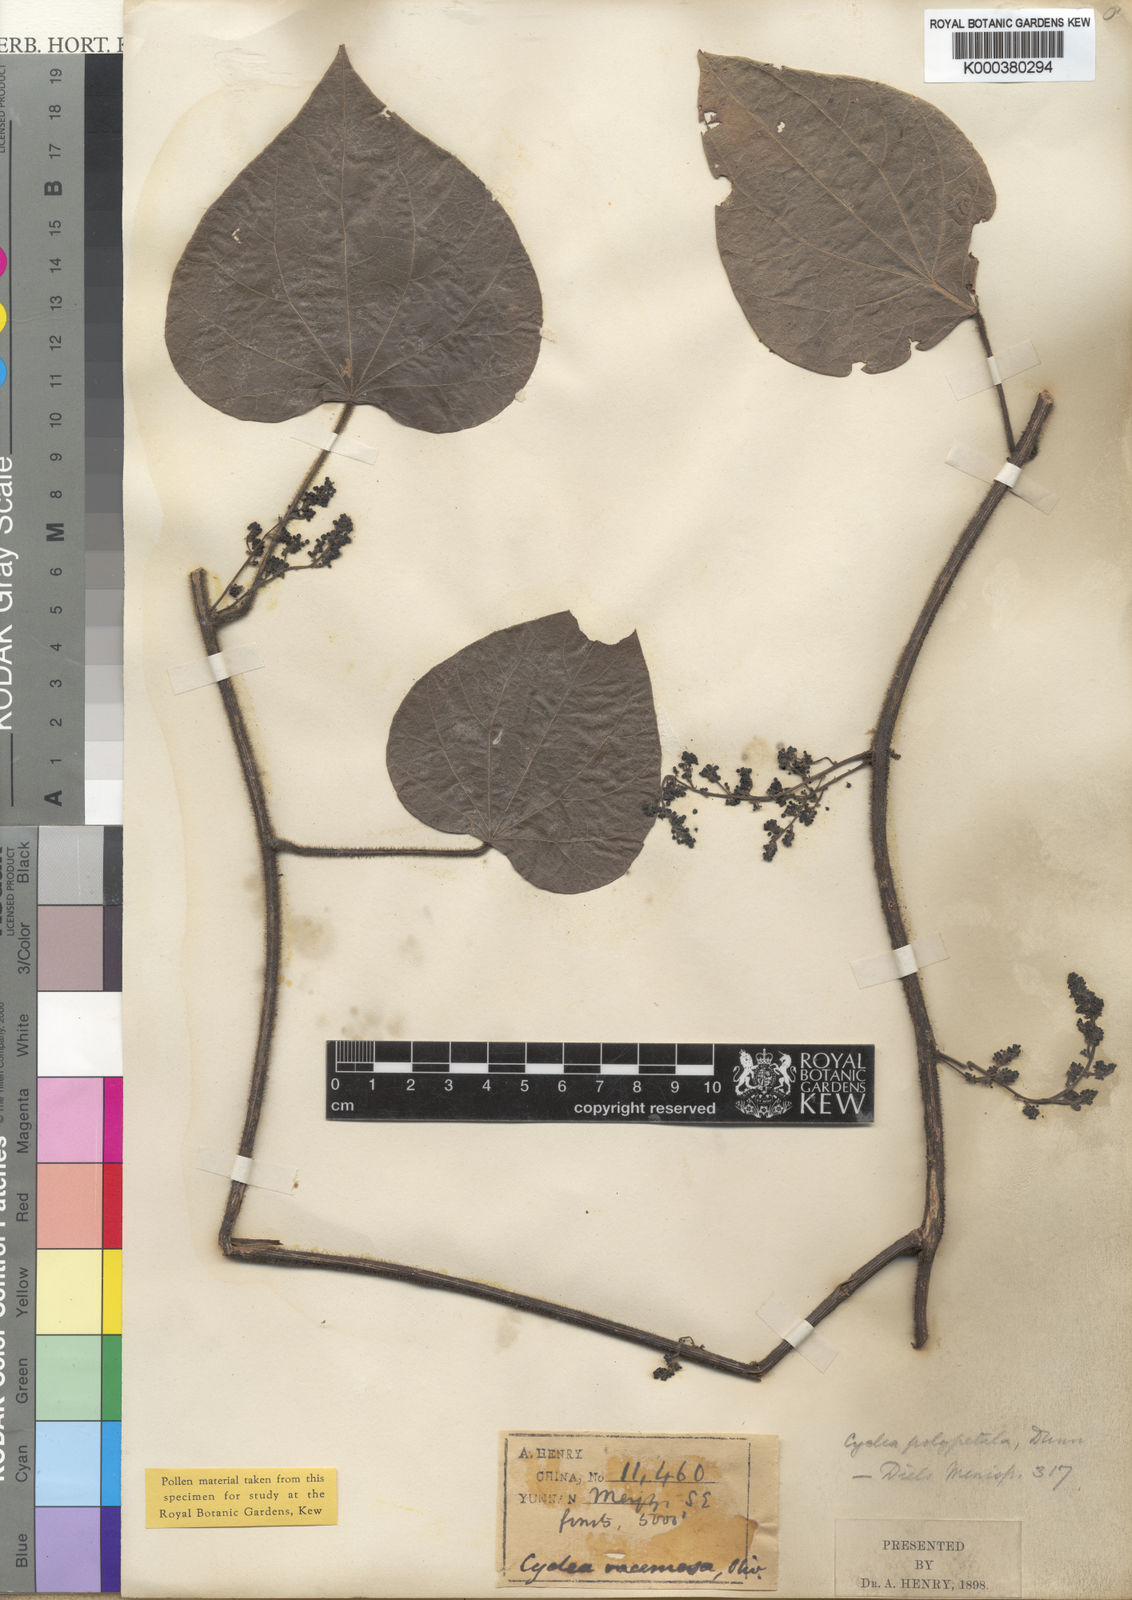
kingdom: Plantae
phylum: Tracheophyta
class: Magnoliopsida
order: Ranunculales
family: Menispermaceae
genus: Cyclea
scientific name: Cyclea polypetala
